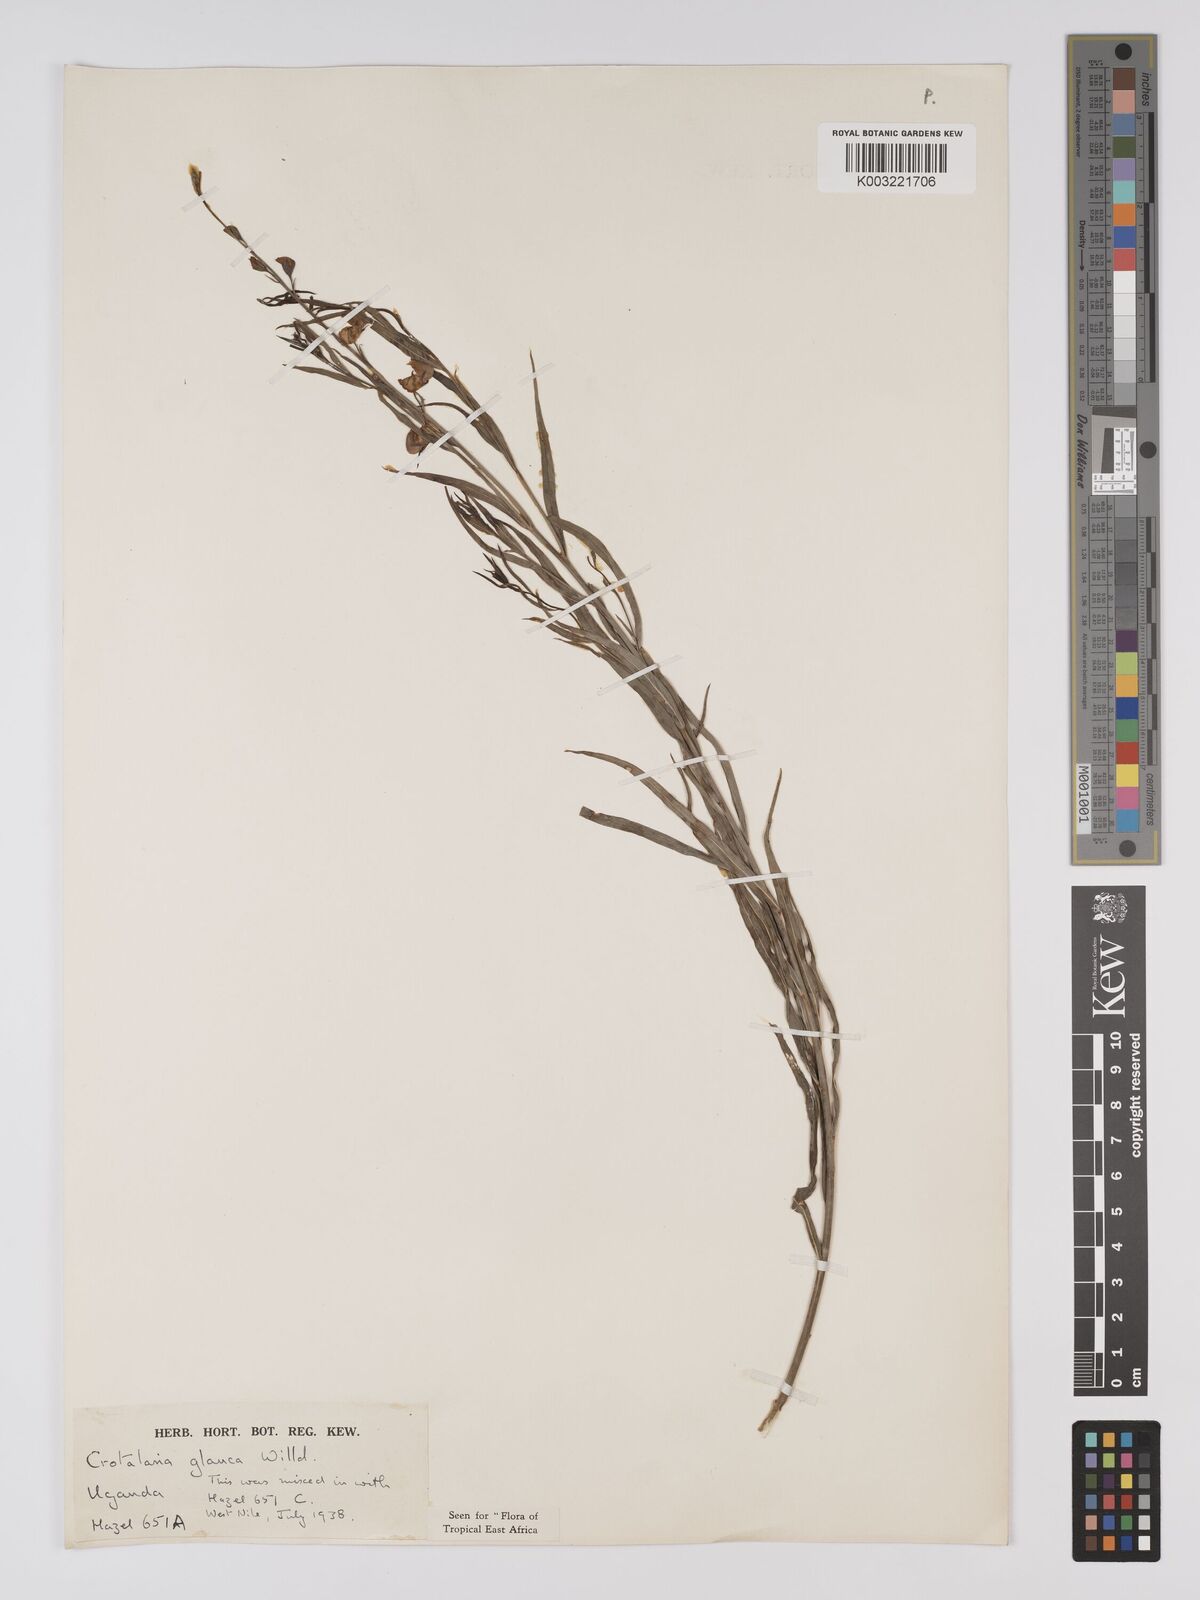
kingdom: Plantae
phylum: Tracheophyta
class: Magnoliopsida
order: Fabales
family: Fabaceae
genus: Crotalaria
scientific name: Crotalaria glauca
